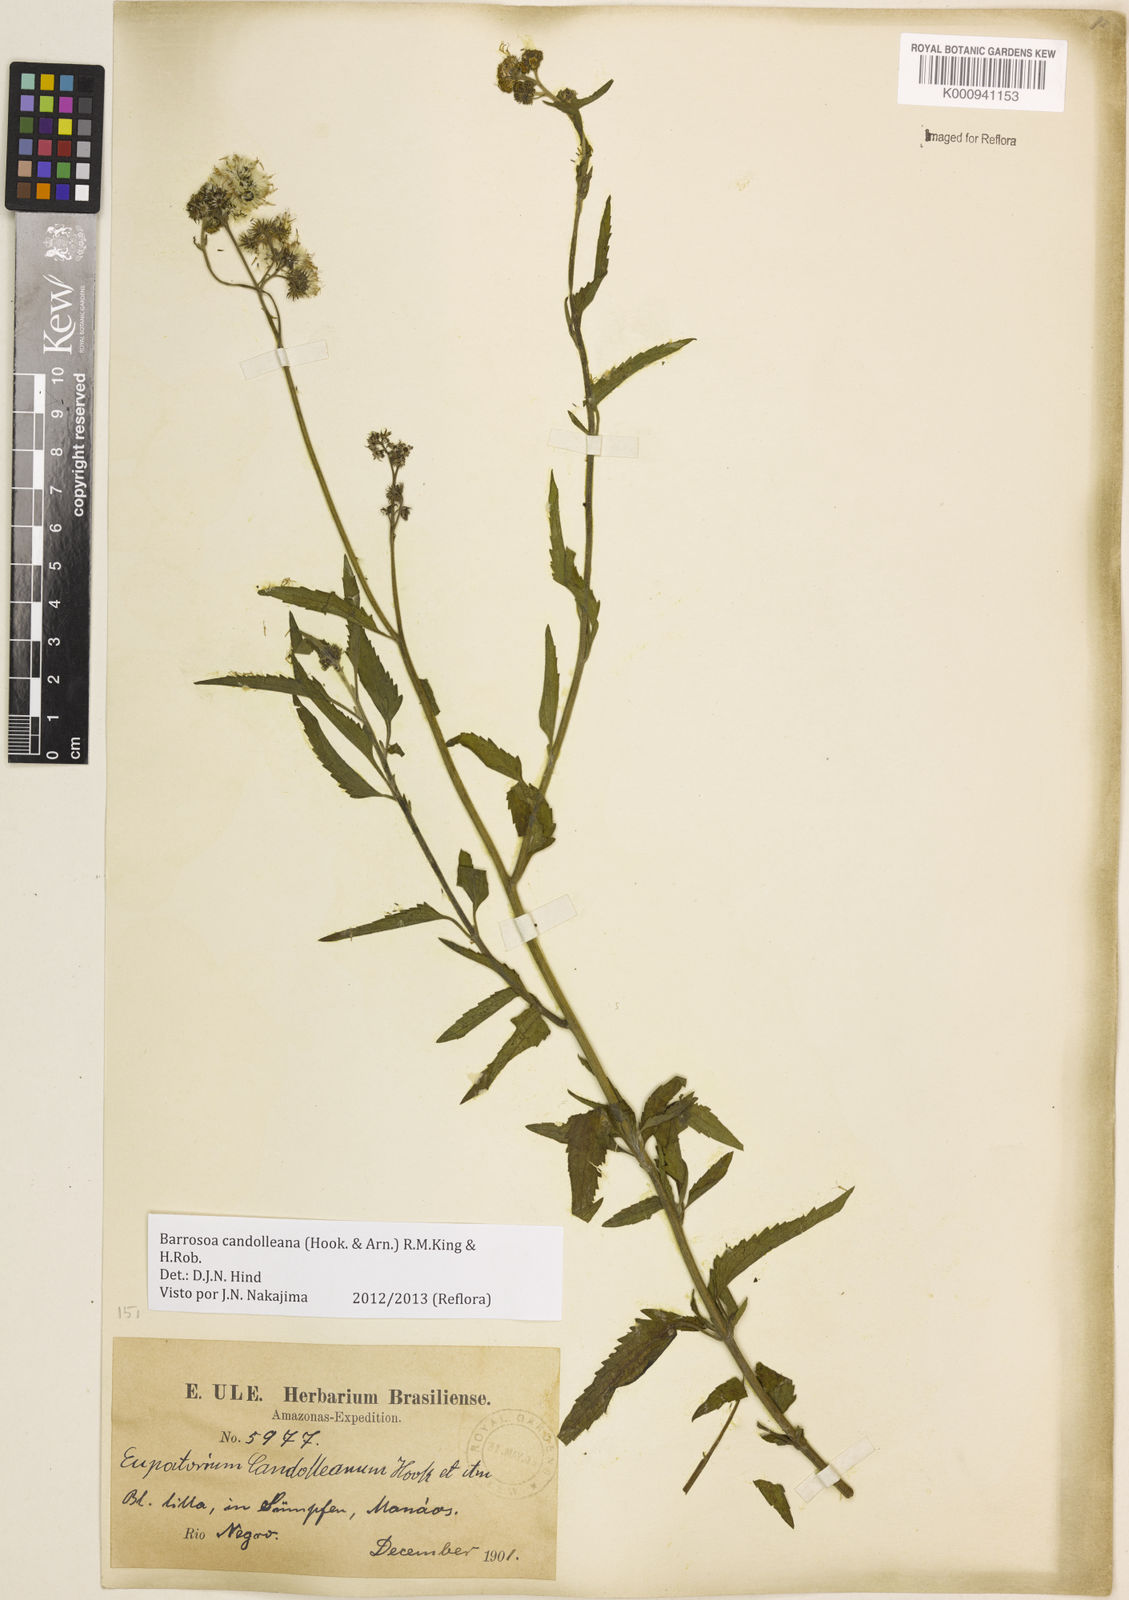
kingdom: Plantae
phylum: Tracheophyta
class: Magnoliopsida
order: Asterales
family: Asteraceae
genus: Barrosoa
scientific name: Barrosoa candolleana
